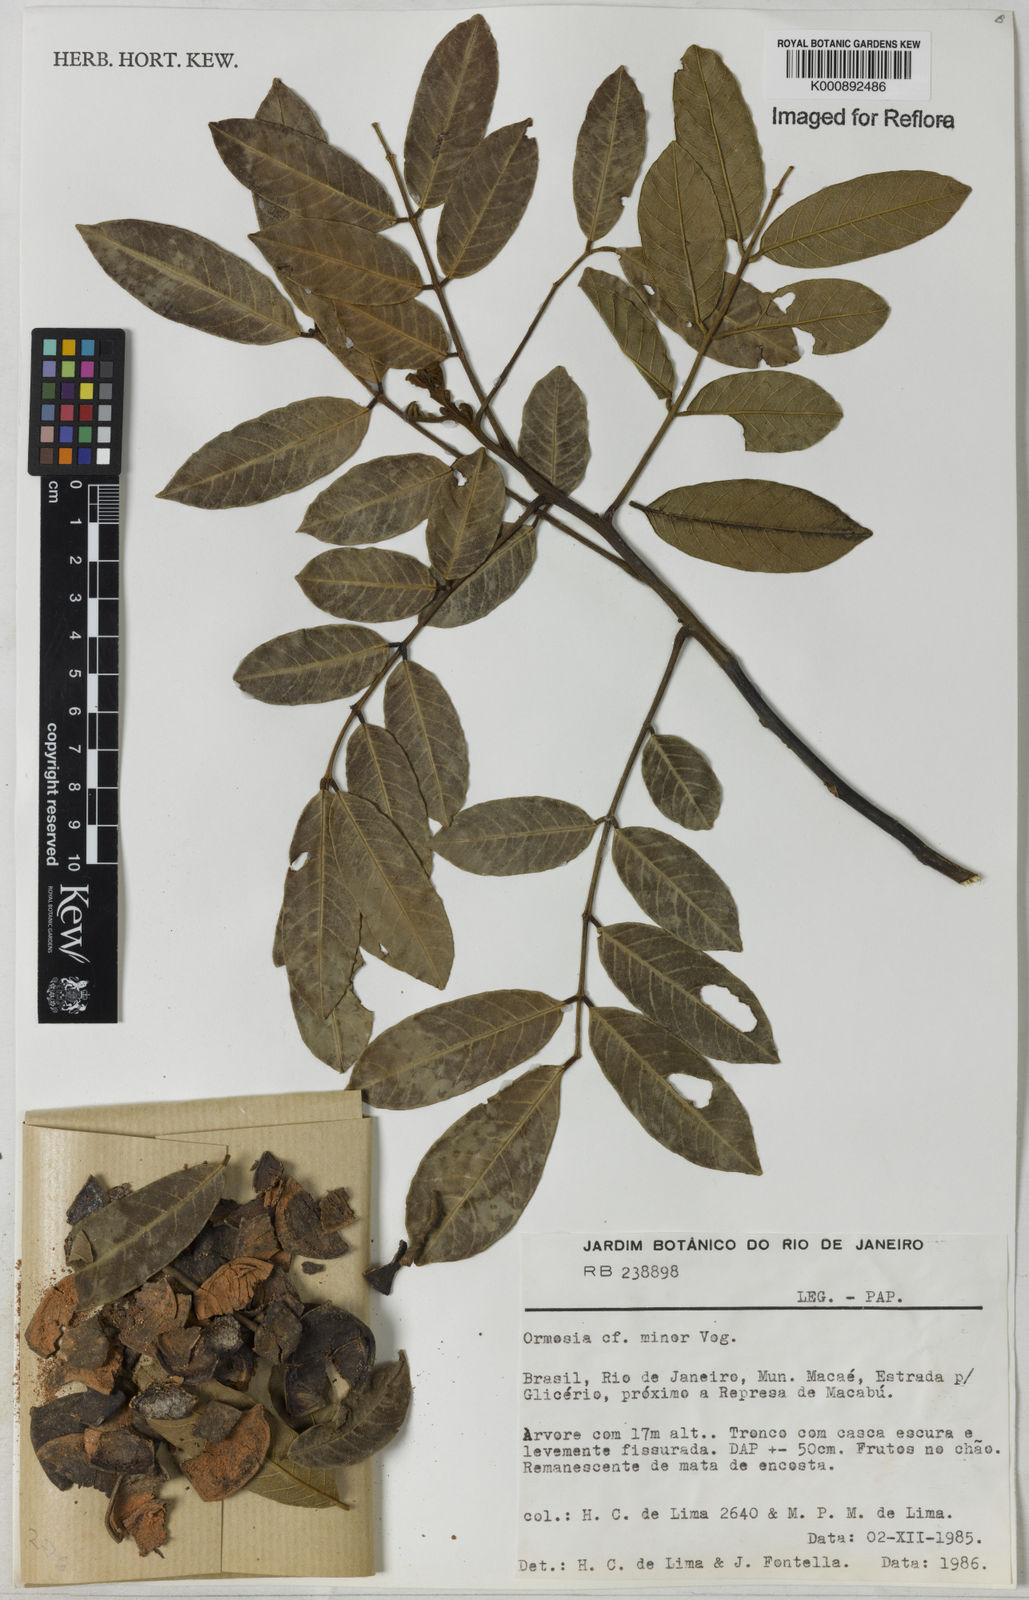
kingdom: Plantae
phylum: Tracheophyta
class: Magnoliopsida
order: Fabales
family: Fabaceae
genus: Ormosia
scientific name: Ormosia minor
